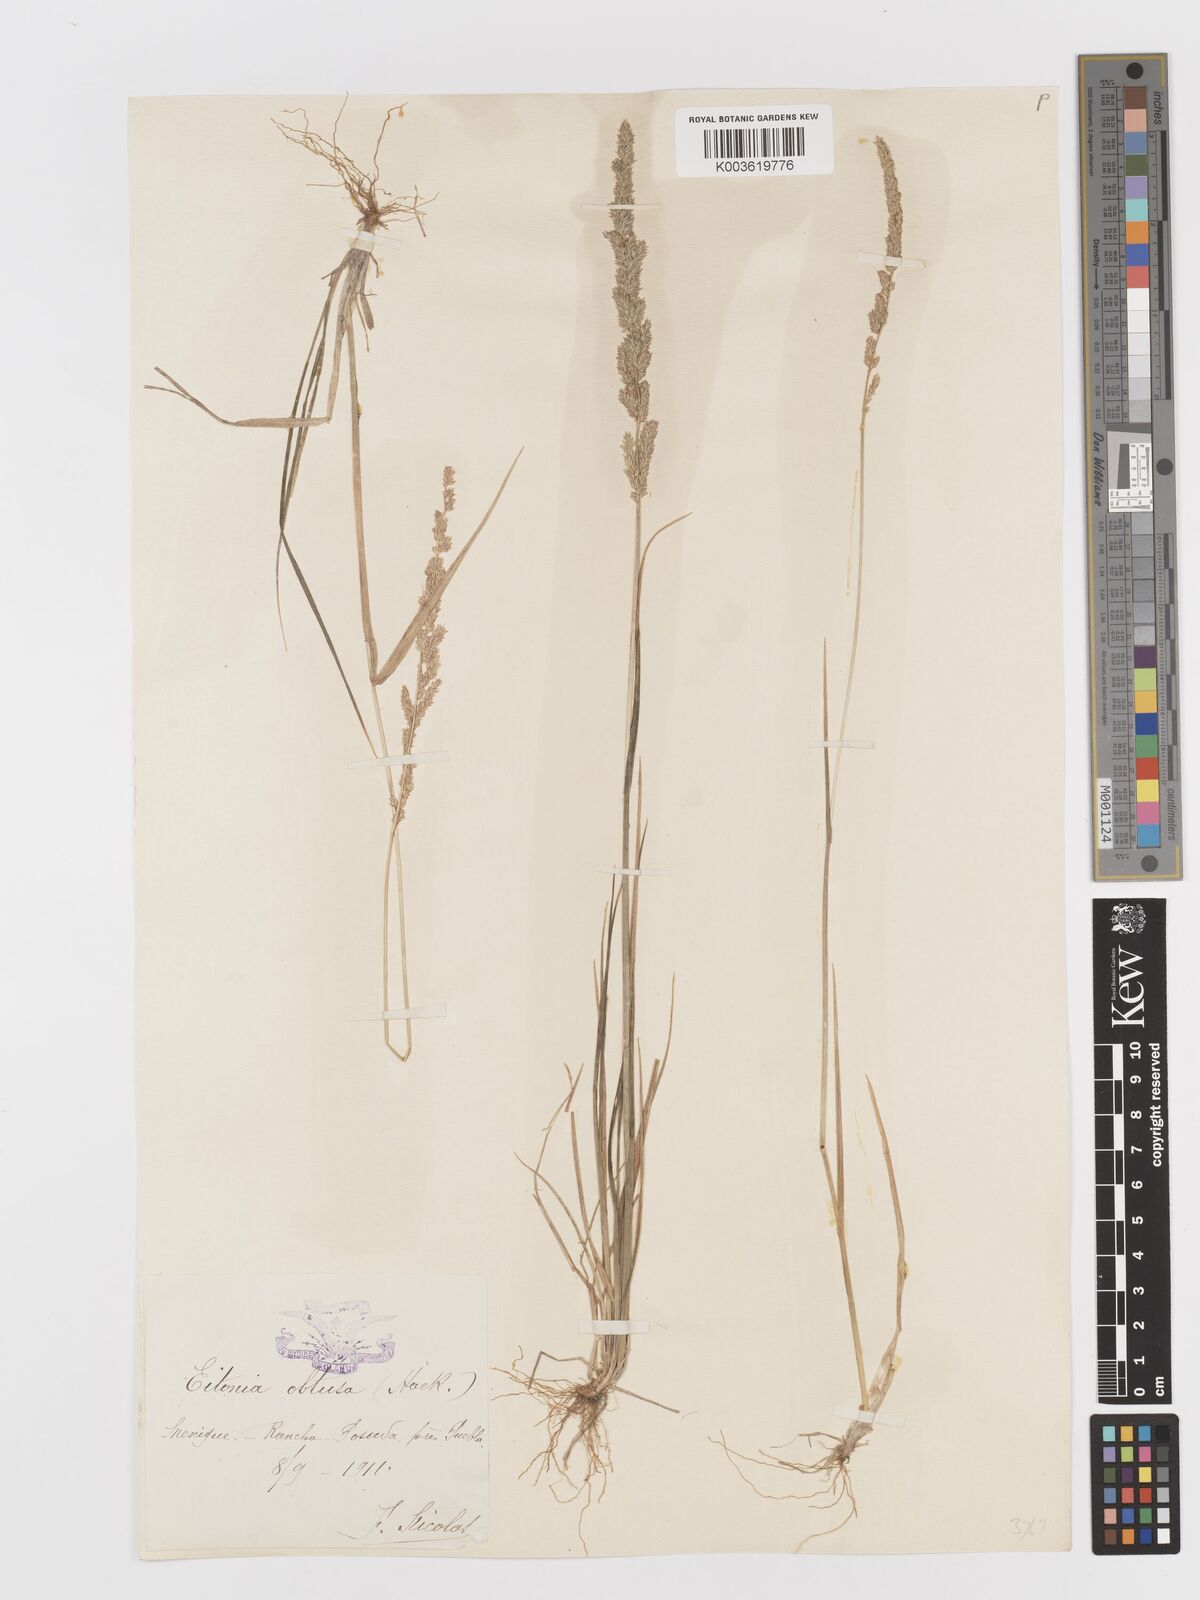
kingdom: Plantae
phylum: Tracheophyta
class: Liliopsida
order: Poales
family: Poaceae
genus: Sphenopholis
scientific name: Sphenopholis obtusata
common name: Prairie grass
